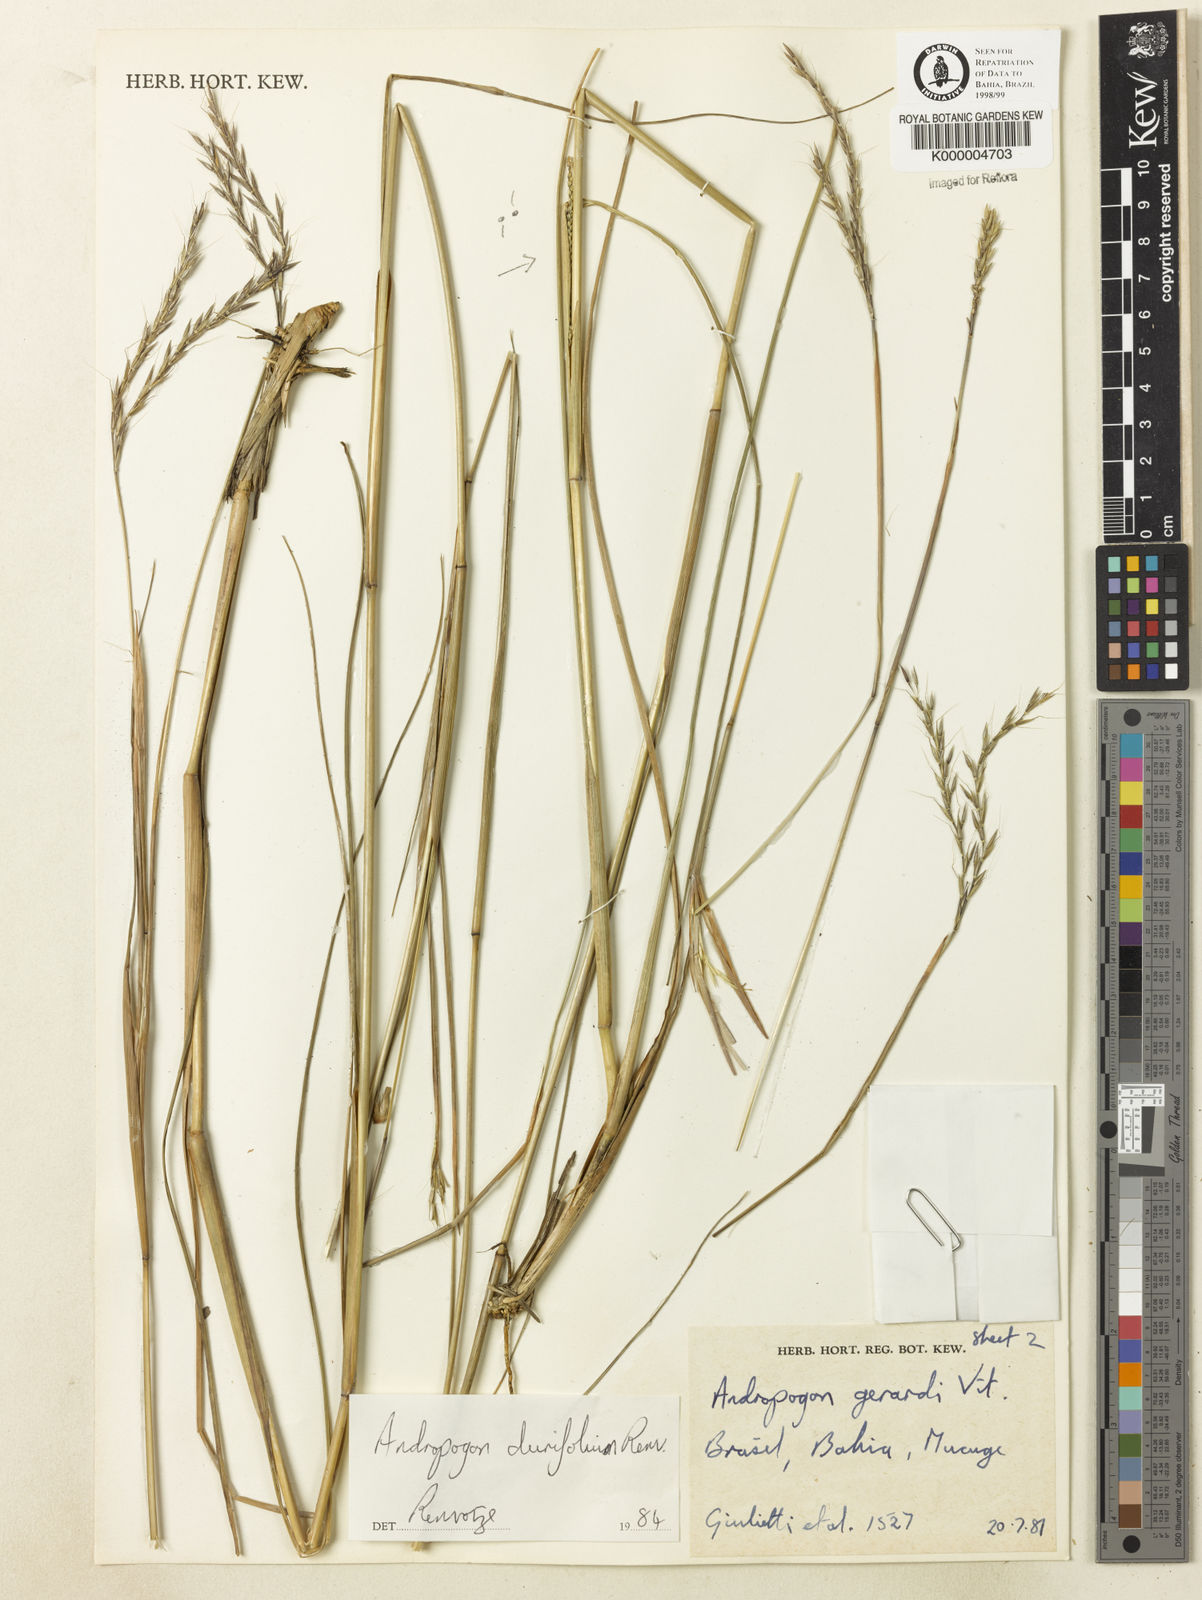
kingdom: Plantae
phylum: Tracheophyta
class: Liliopsida
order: Poales
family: Poaceae
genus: Andropogon
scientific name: Andropogon durifolius
